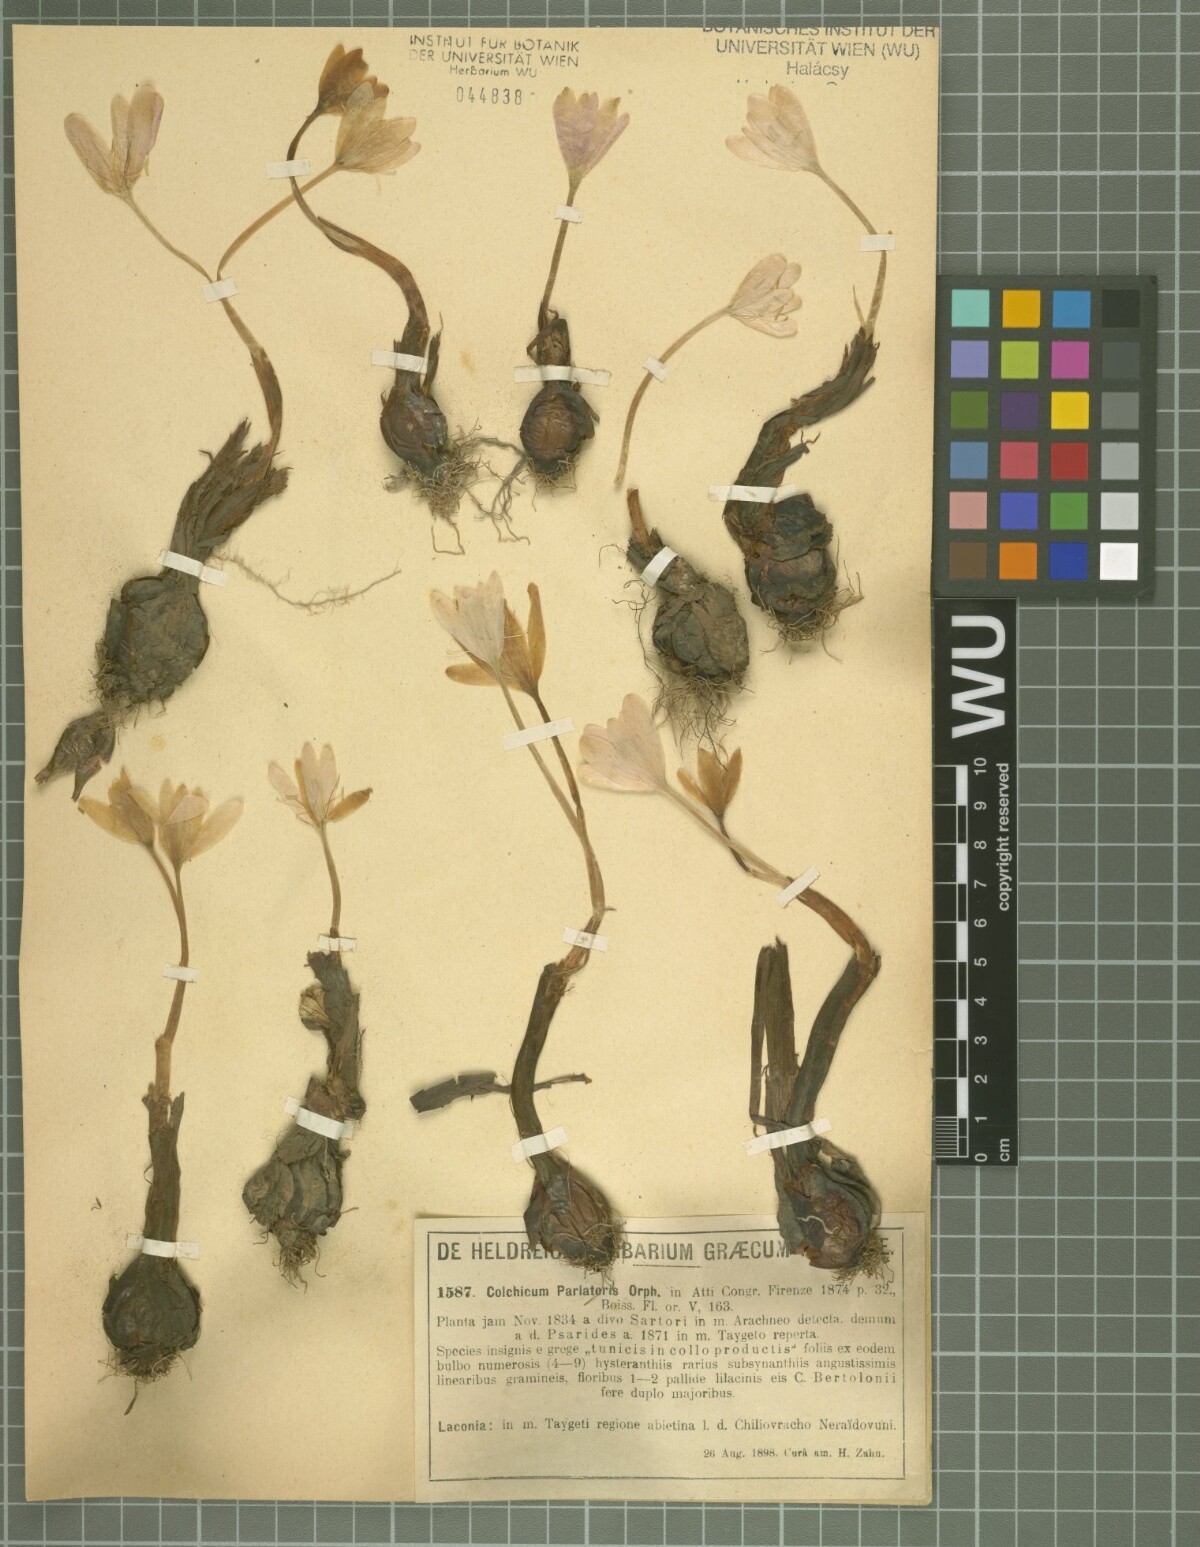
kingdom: Plantae
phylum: Tracheophyta
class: Liliopsida
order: Liliales
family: Colchicaceae
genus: Colchicum
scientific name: Colchicum parlatoris
